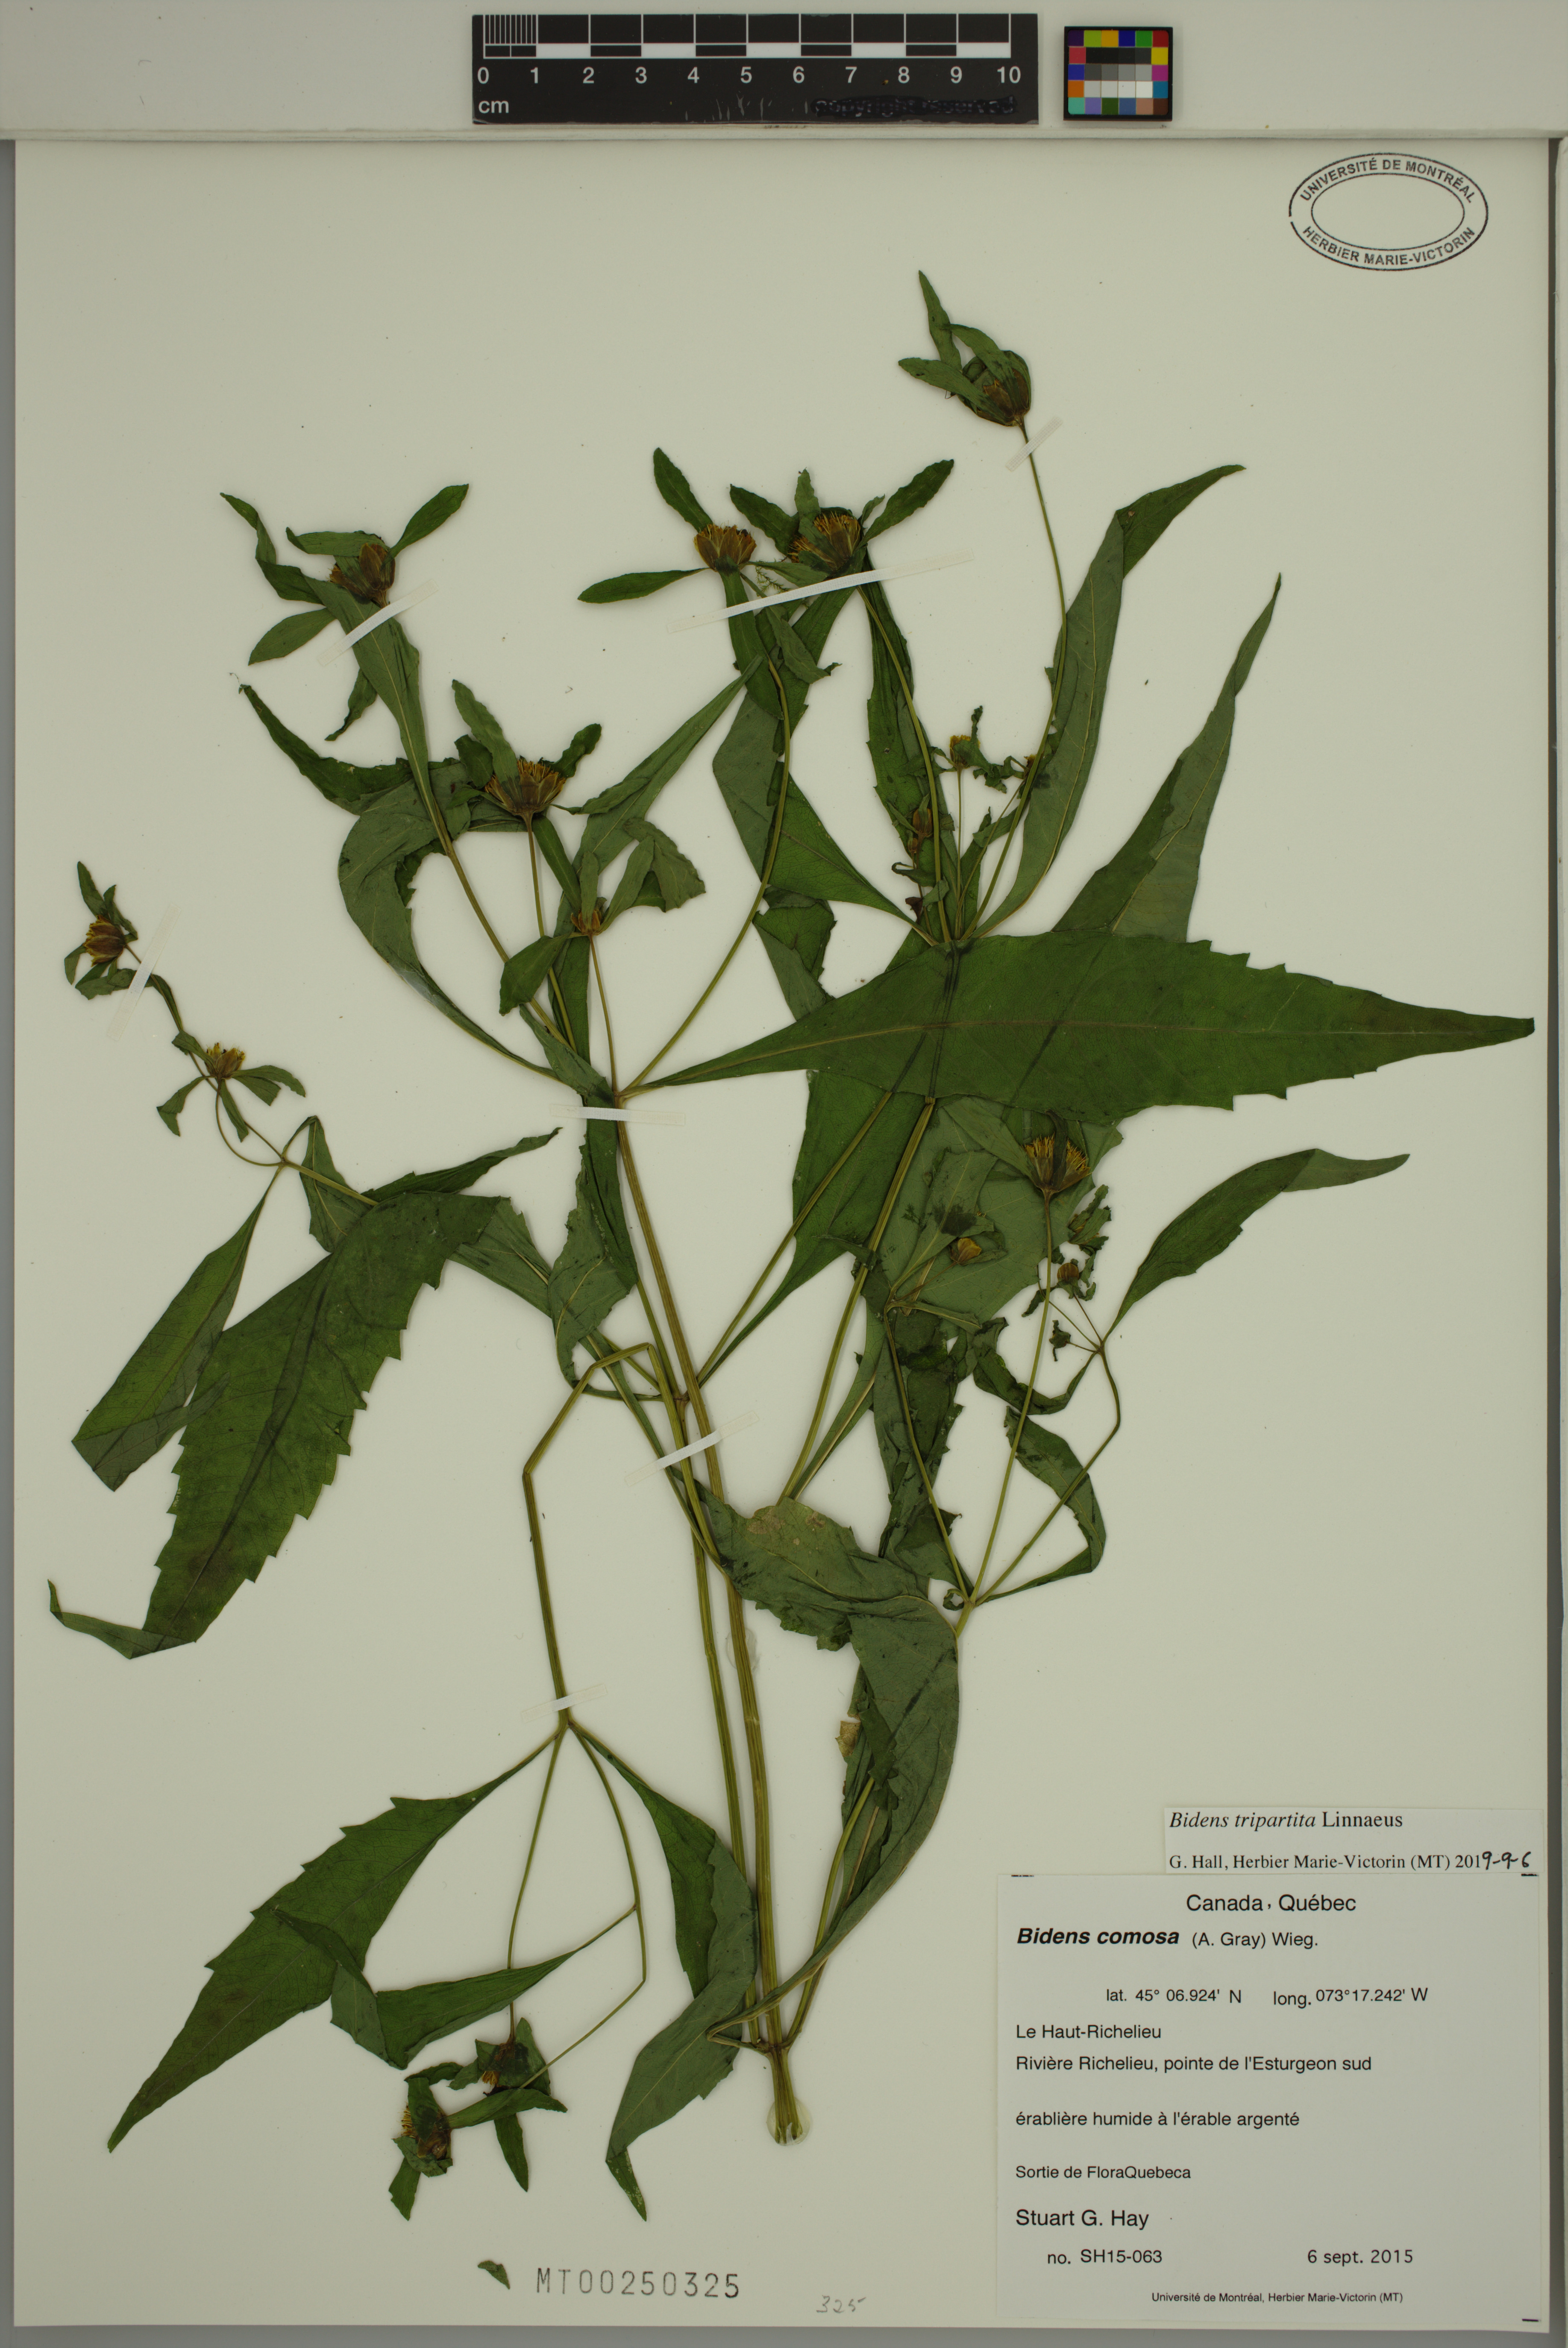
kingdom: Plantae
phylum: Tracheophyta
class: Magnoliopsida
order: Asterales
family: Asteraceae
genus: Bidens
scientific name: Bidens tripartita
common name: Trifid bur-marigold
